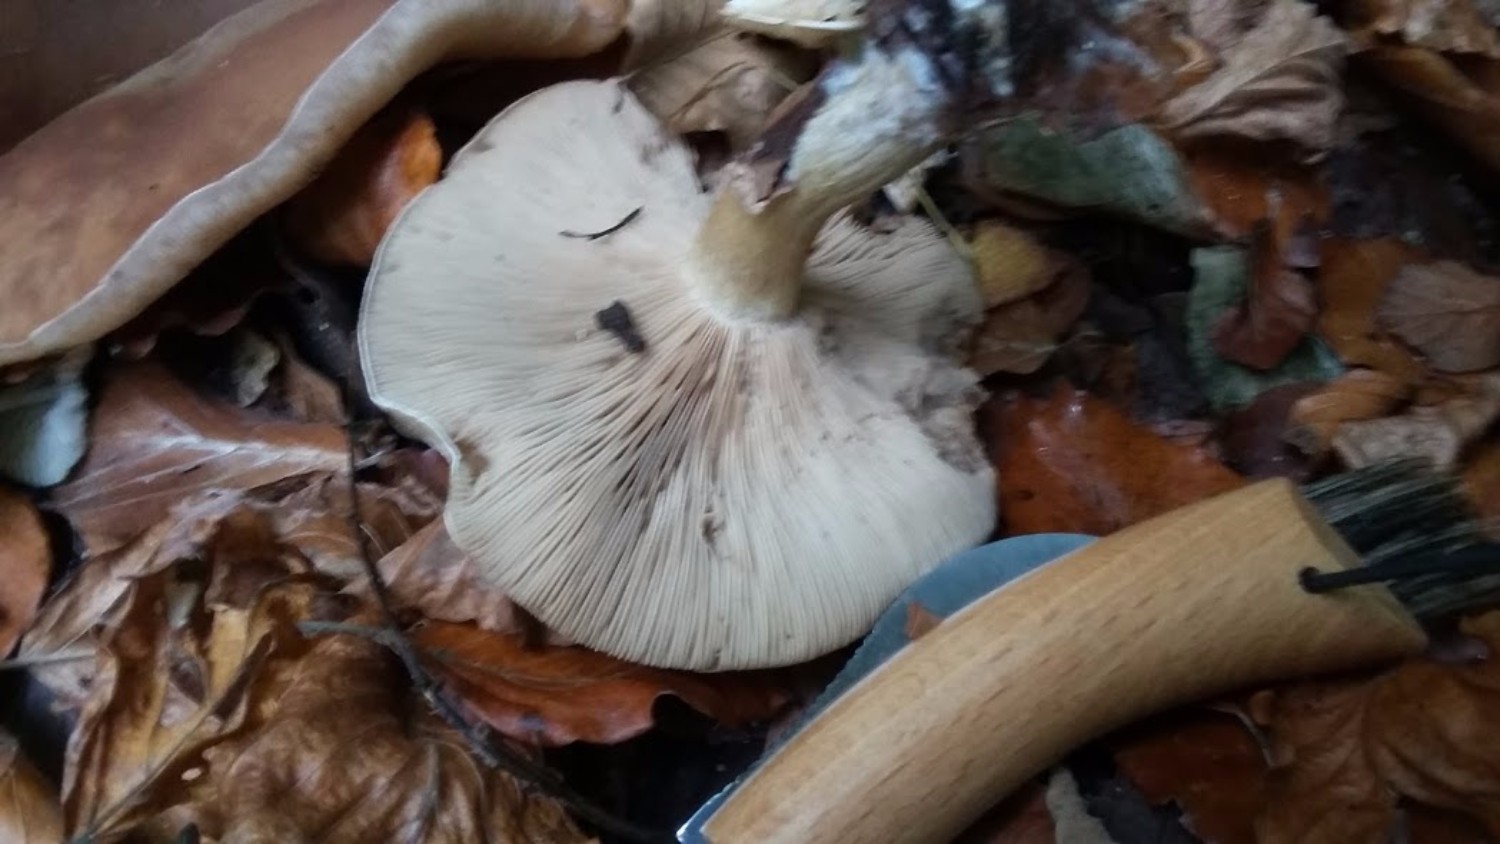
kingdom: Fungi
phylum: Basidiomycota
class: Agaricomycetes
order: Agaricales
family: Tricholomataceae
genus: Lepista
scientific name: Lepista
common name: hekseringshat
